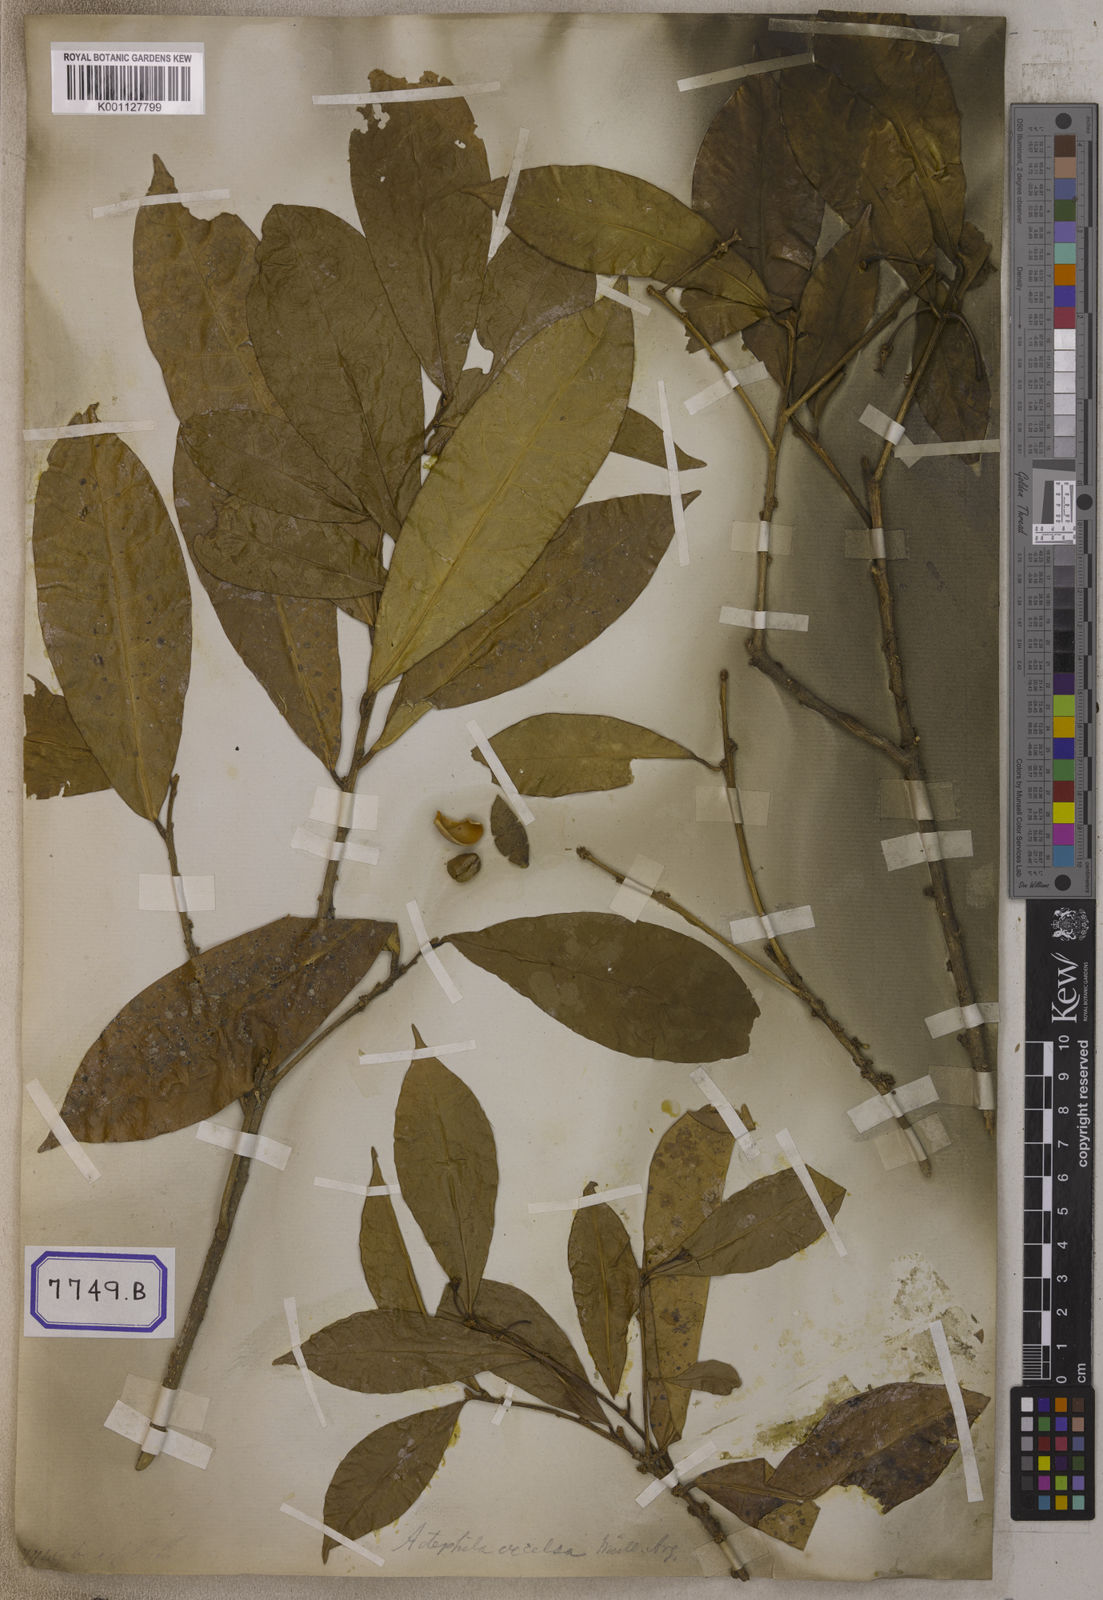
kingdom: Plantae
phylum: Tracheophyta
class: Magnoliopsida
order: Malpighiales
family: Euphorbiaceae
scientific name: Euphorbiaceae
